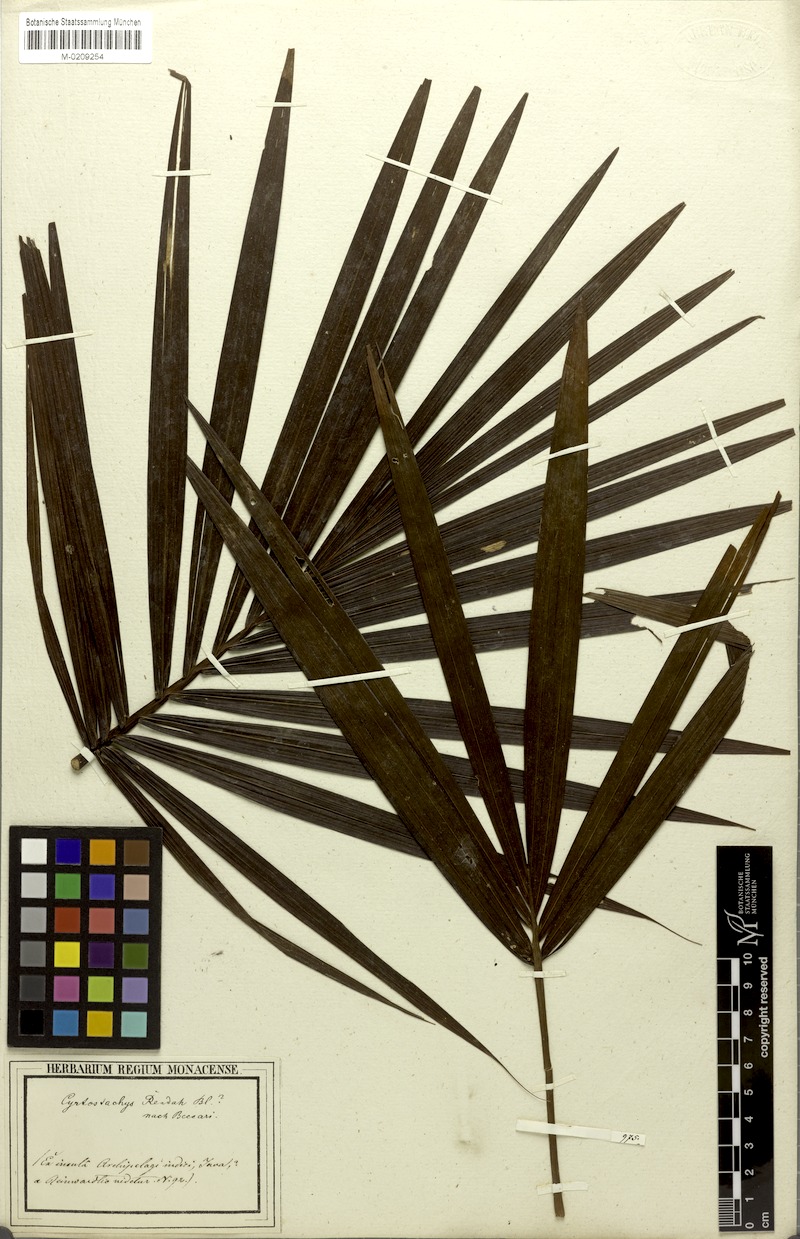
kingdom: Plantae
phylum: Tracheophyta
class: Liliopsida
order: Arecales
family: Arecaceae
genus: Cyrtostachys
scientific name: Cyrtostachys renda
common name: Lipstick palm
